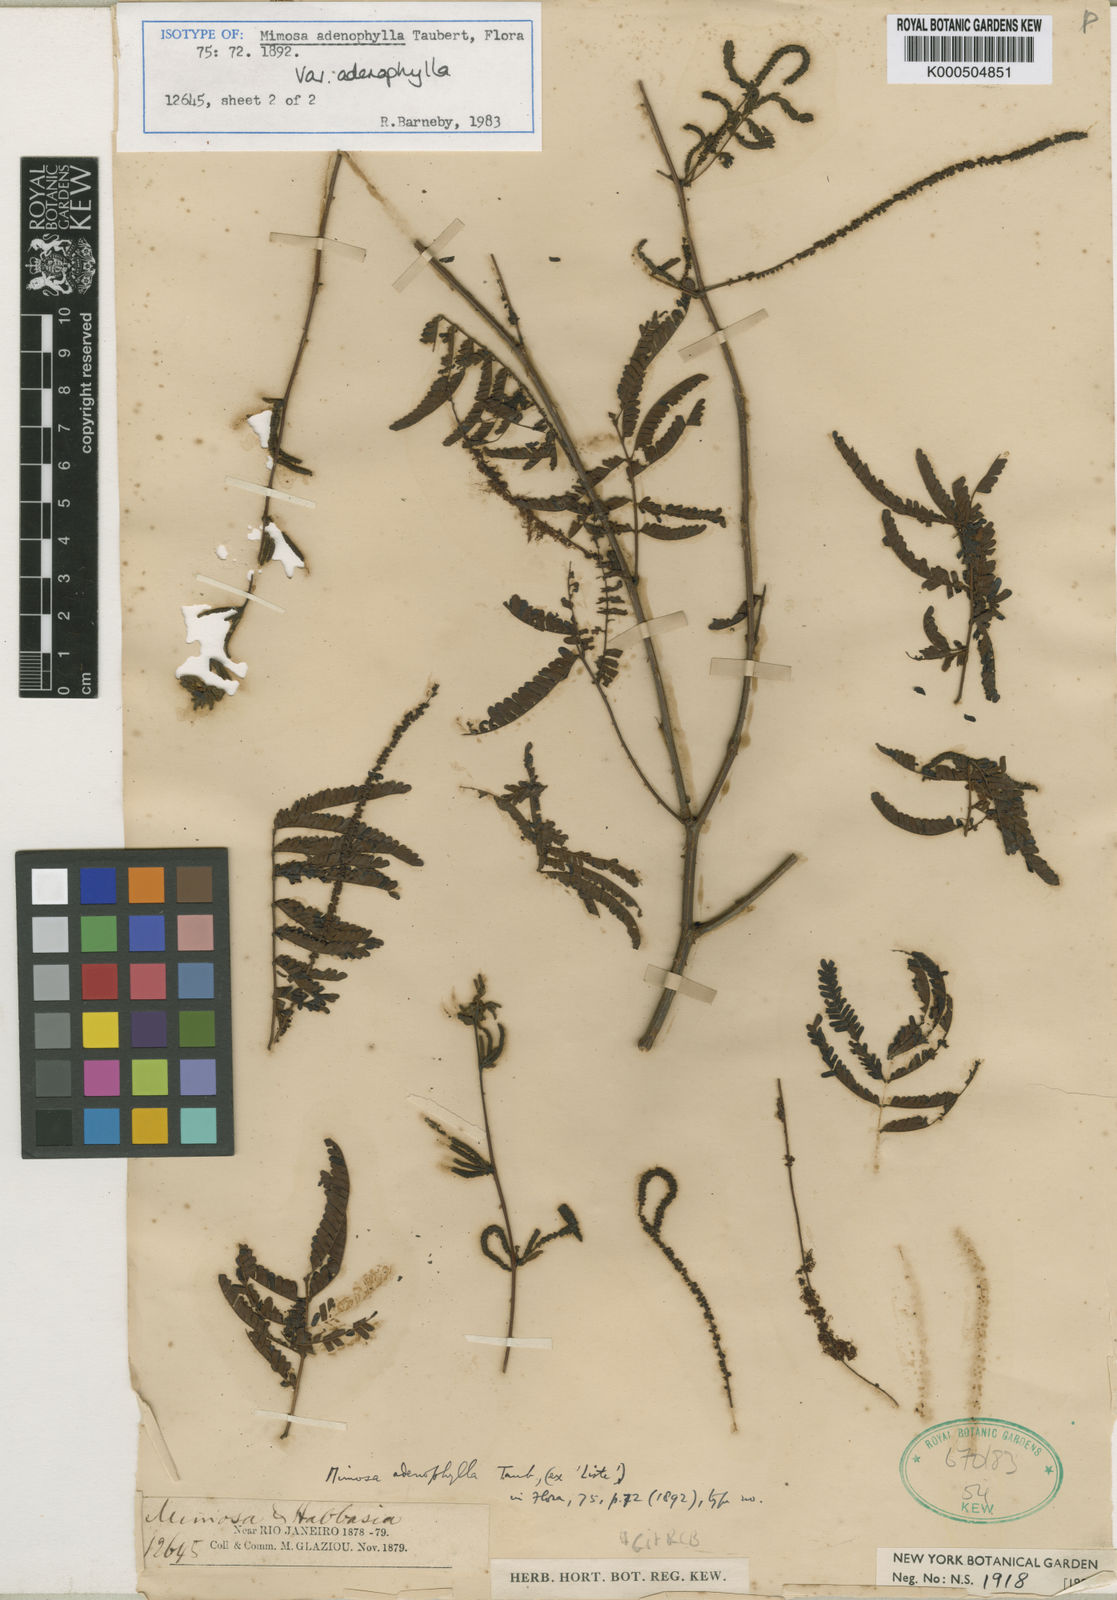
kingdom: Plantae
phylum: Tracheophyta
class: Magnoliopsida
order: Fabales
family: Fabaceae
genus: Mimosa
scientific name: Mimosa pteridifolia
